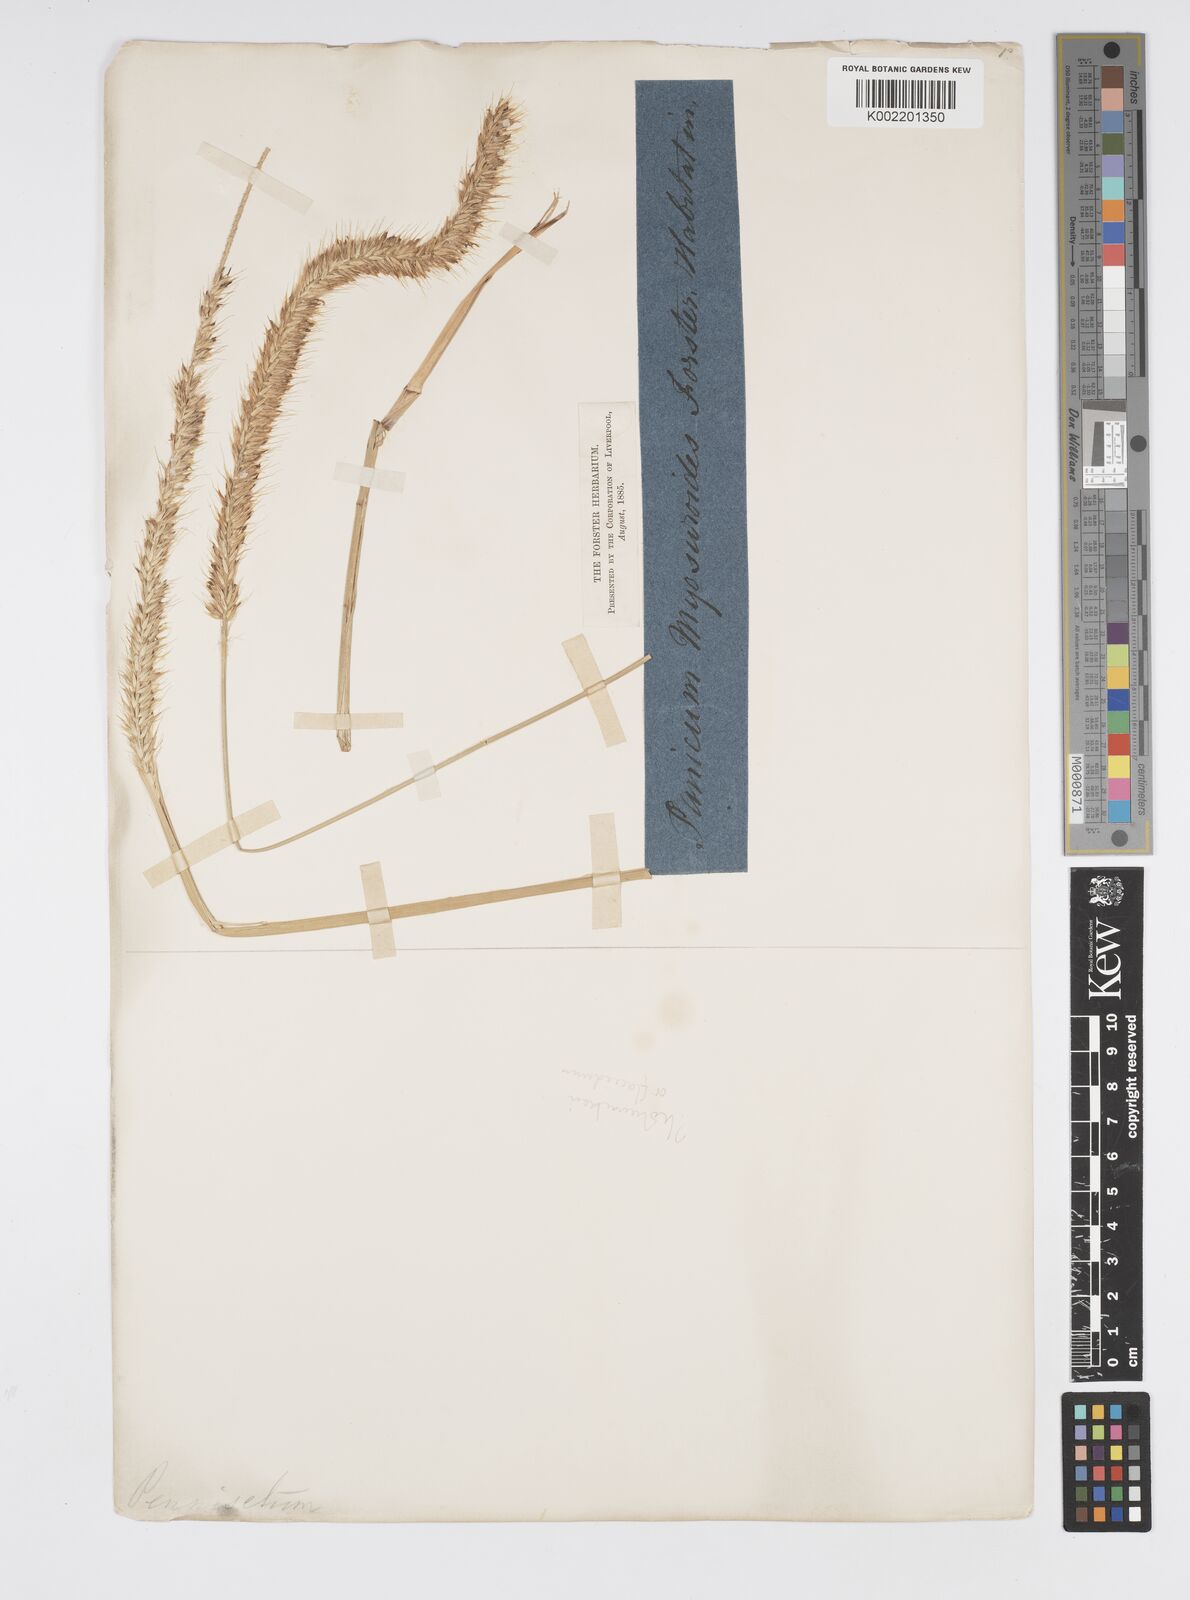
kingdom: Plantae
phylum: Tracheophyta
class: Liliopsida
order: Poales
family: Poaceae
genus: Cenchrus
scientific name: Cenchrus hohenackeri
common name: Moya grass
